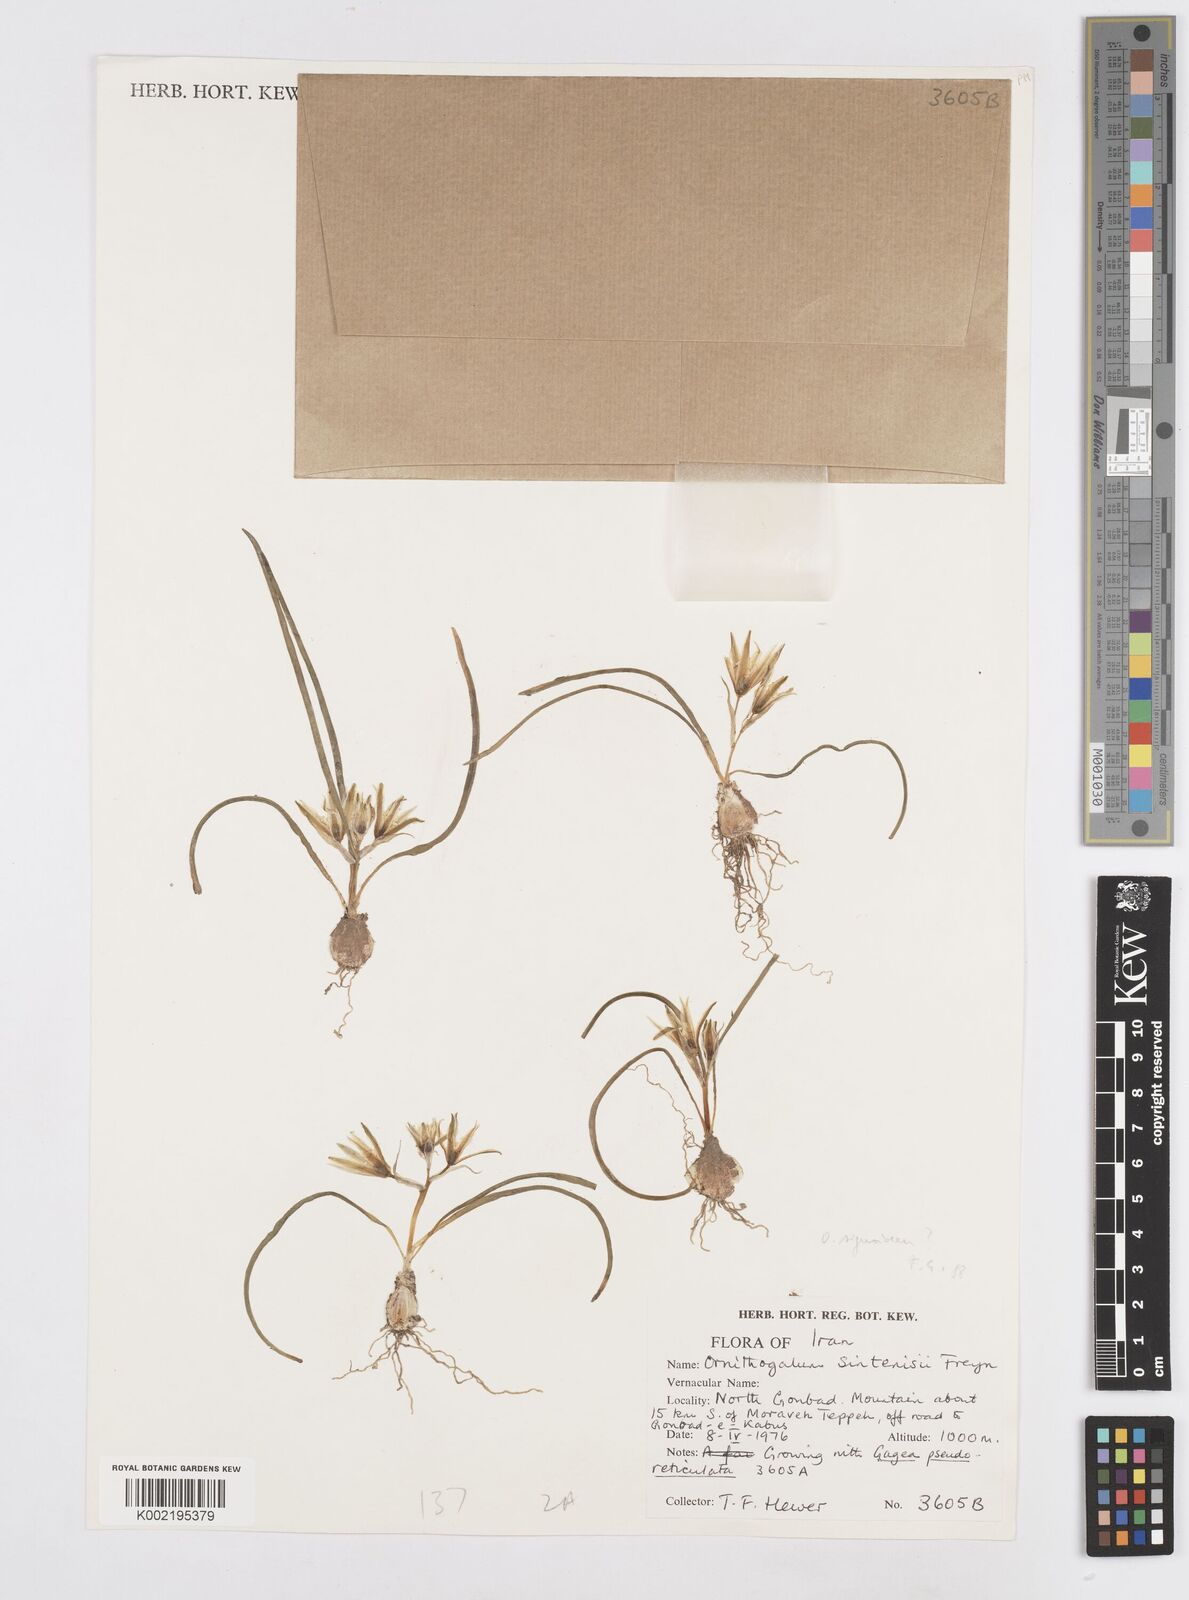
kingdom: Plantae
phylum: Tracheophyta
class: Liliopsida
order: Asparagales
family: Asparagaceae
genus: Ornithogalum
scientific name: Ornithogalum sintenisii
